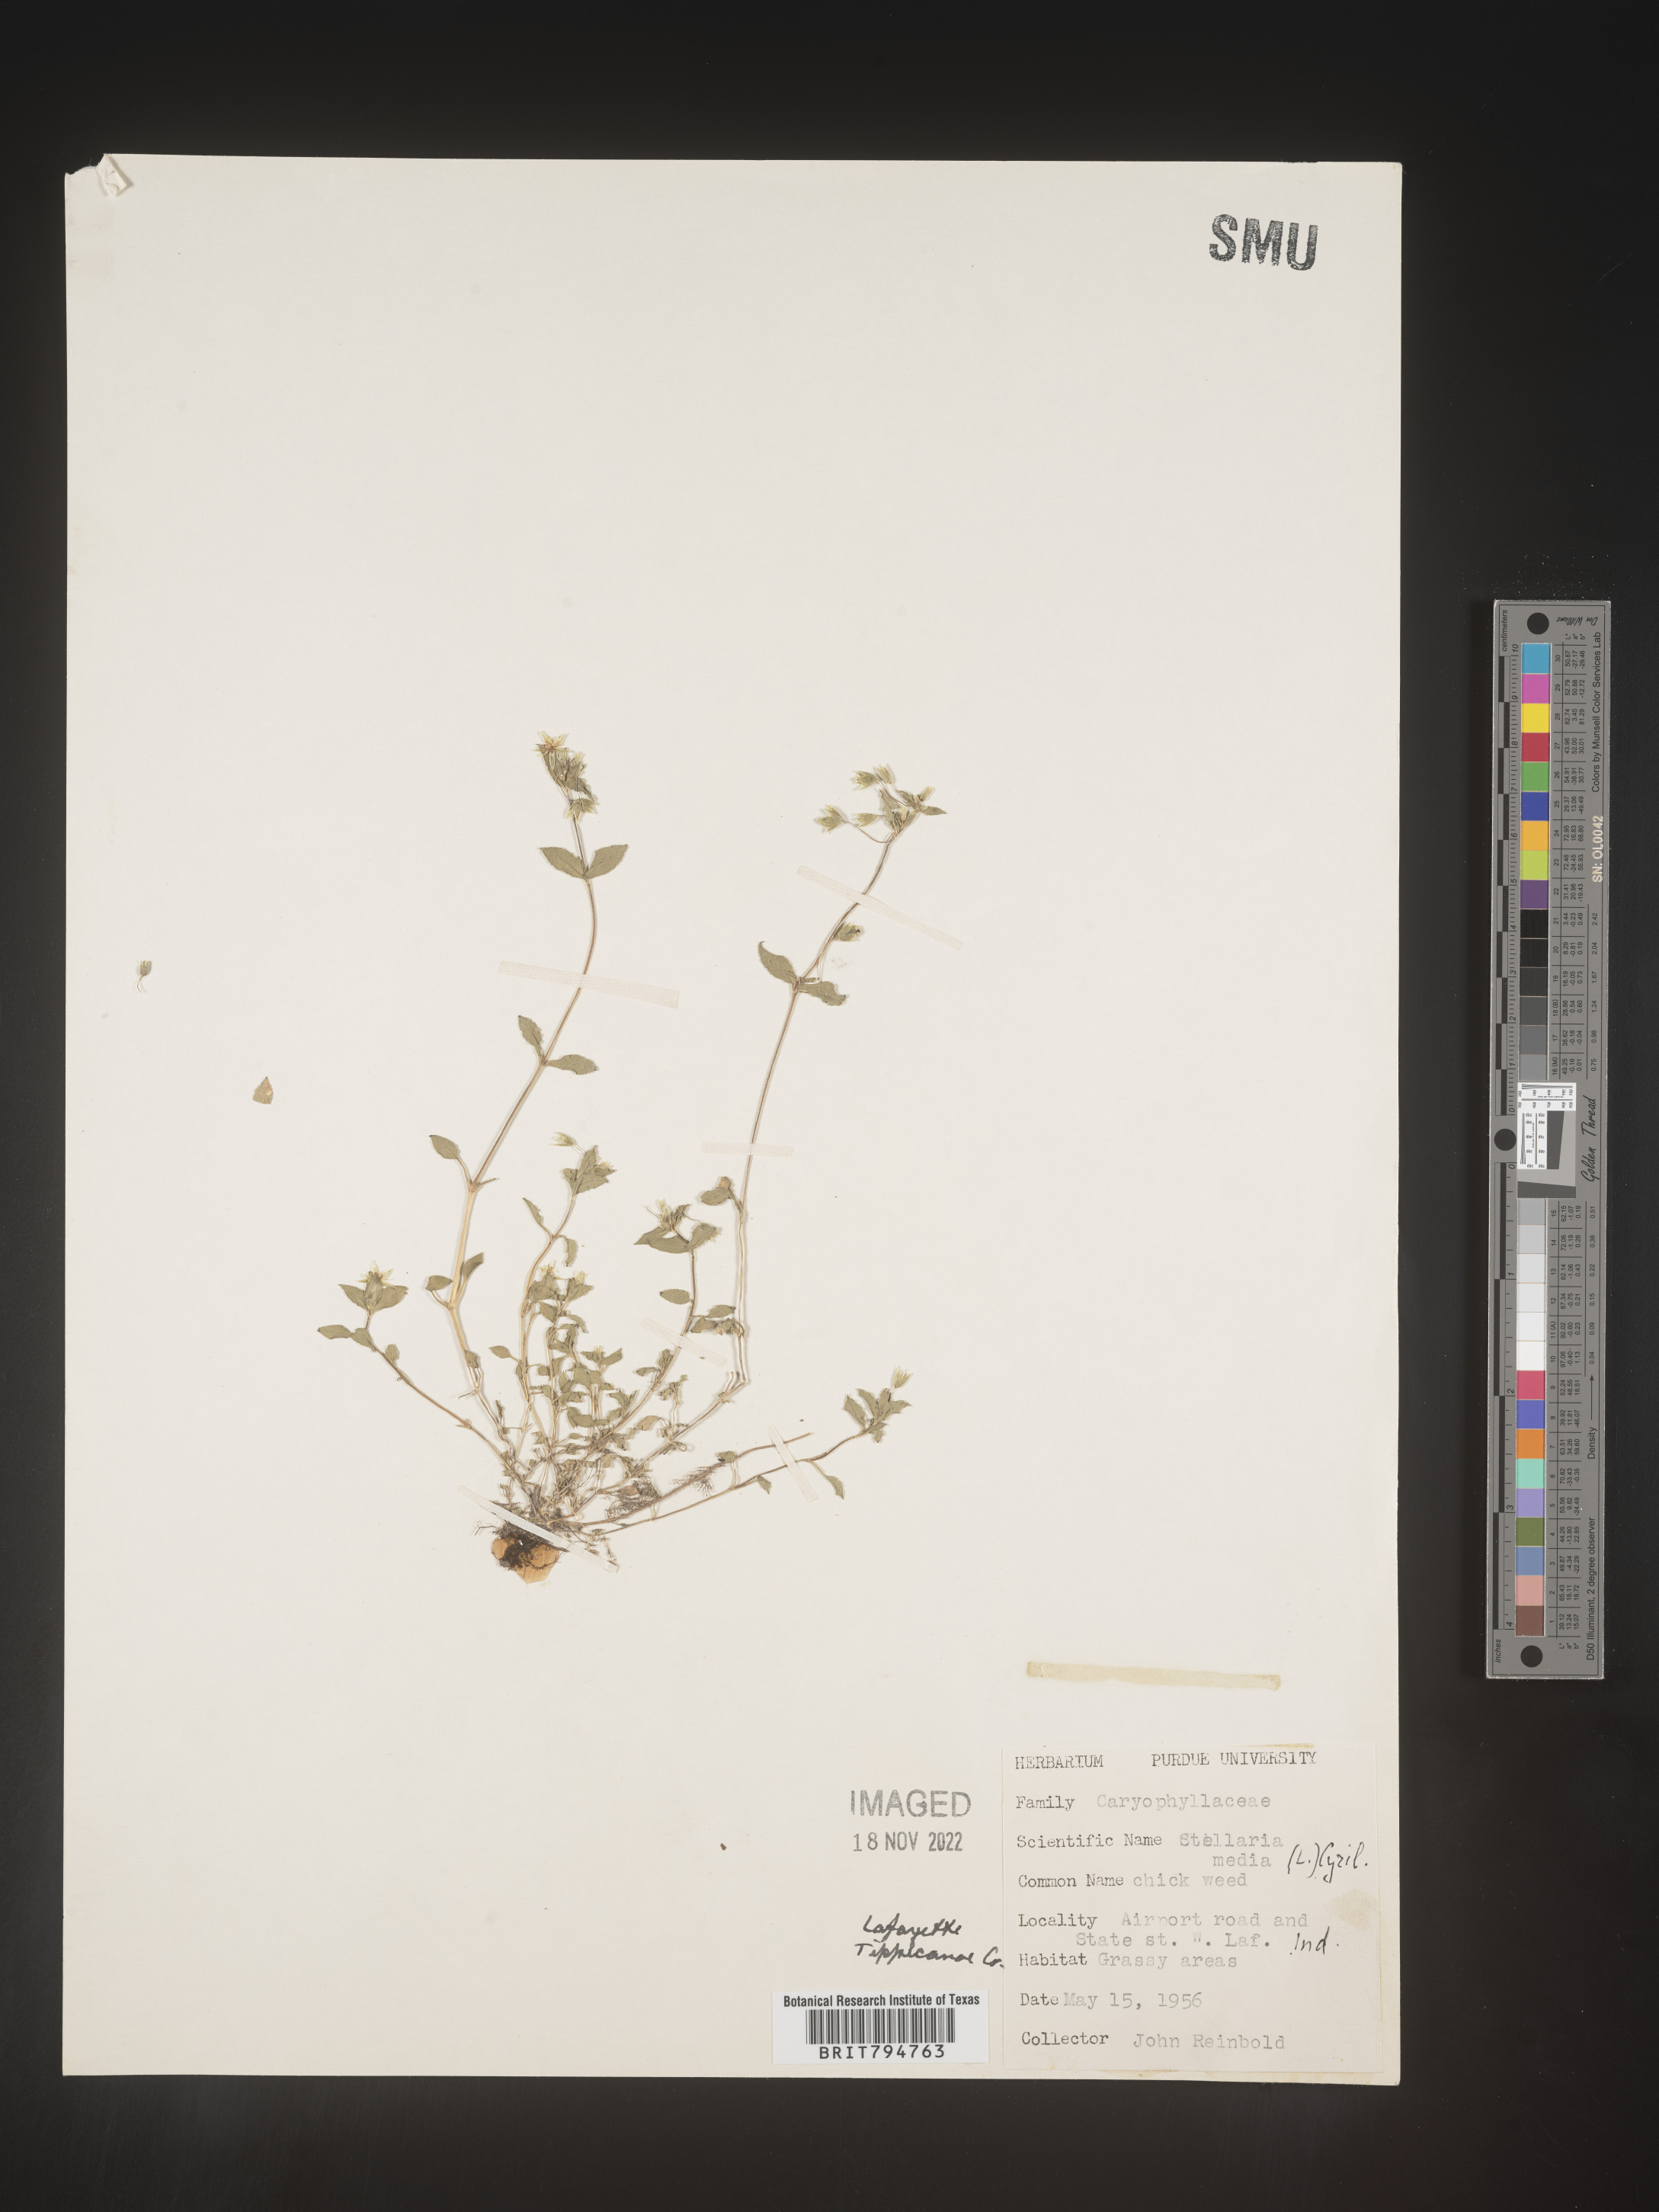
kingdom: Plantae
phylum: Tracheophyta
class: Magnoliopsida
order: Caryophyllales
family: Caryophyllaceae
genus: Stellaria
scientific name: Stellaria media
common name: Common chickweed
